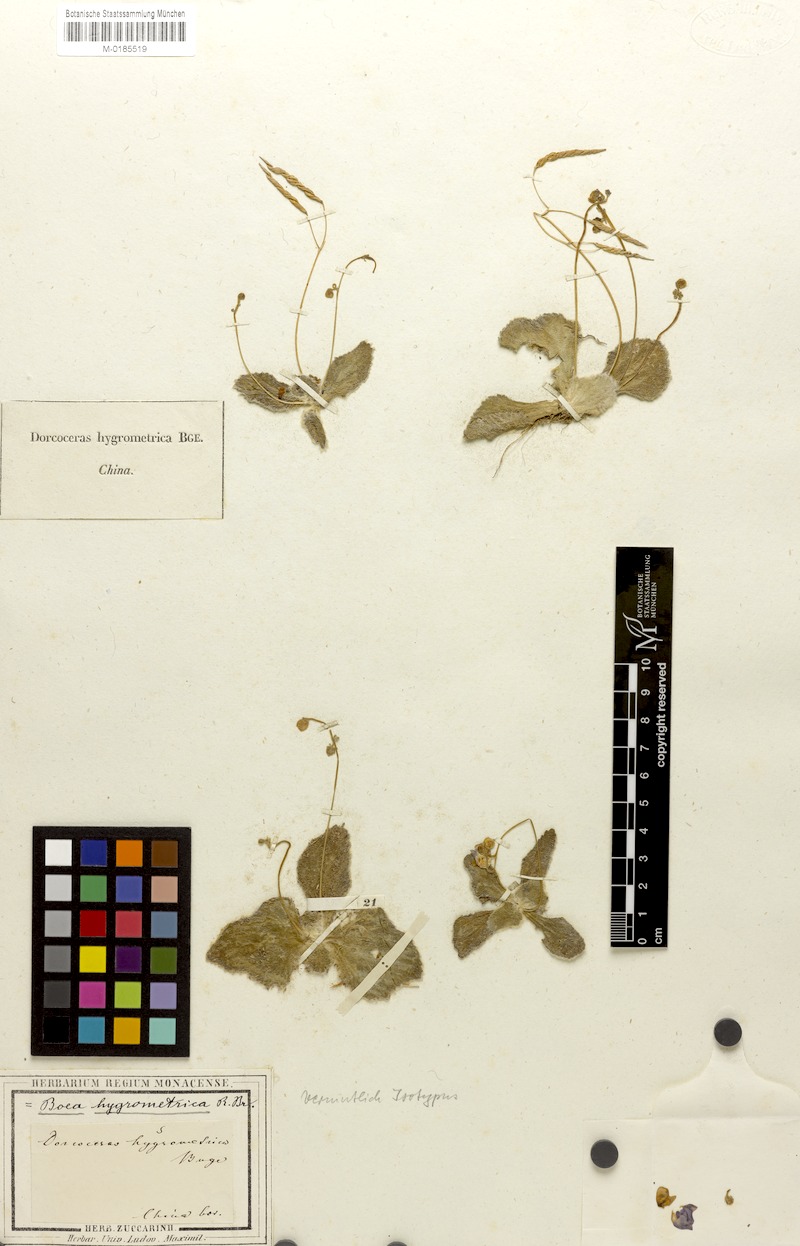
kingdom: Plantae
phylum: Tracheophyta
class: Magnoliopsida
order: Lamiales
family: Gesneriaceae
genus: Dorcoceras
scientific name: Dorcoceras hygrometricum
